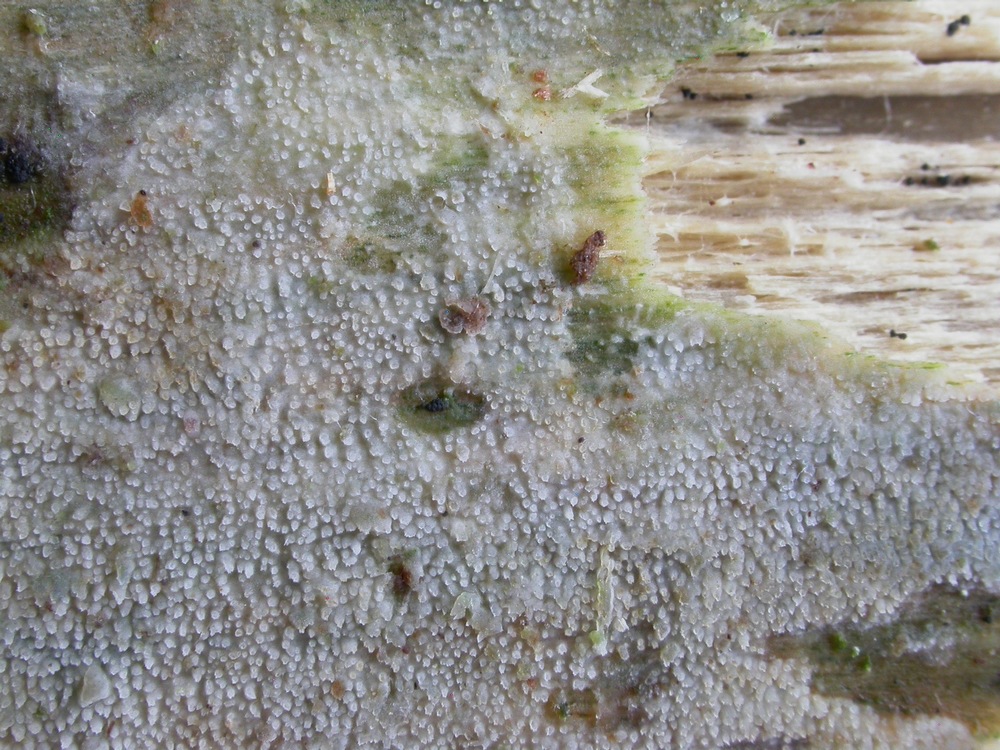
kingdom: Fungi
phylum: Basidiomycota
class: Agaricomycetes
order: Hymenochaetales
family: Rickenellaceae
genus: Resinicium
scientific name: Resinicium bicolor
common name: almindelig vokstand
